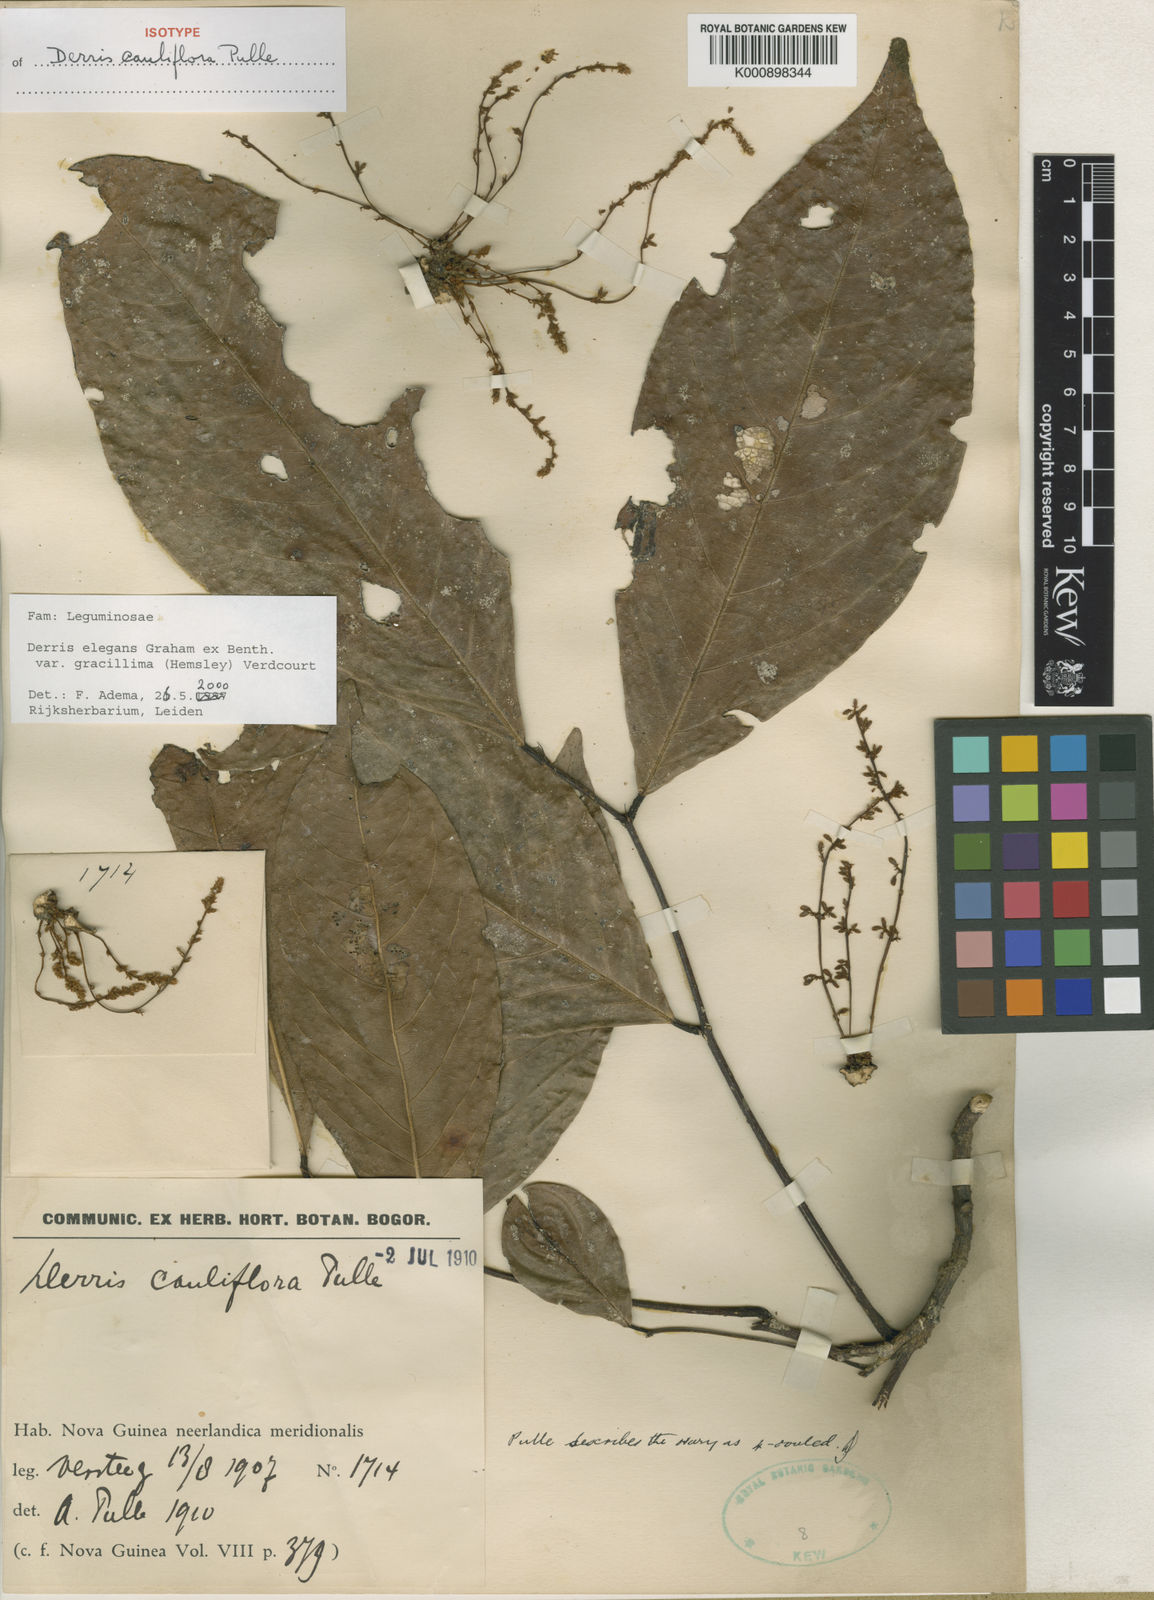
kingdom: Plantae
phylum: Tracheophyta
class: Magnoliopsida
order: Fabales
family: Fabaceae
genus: Derris
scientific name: Derris elegans
